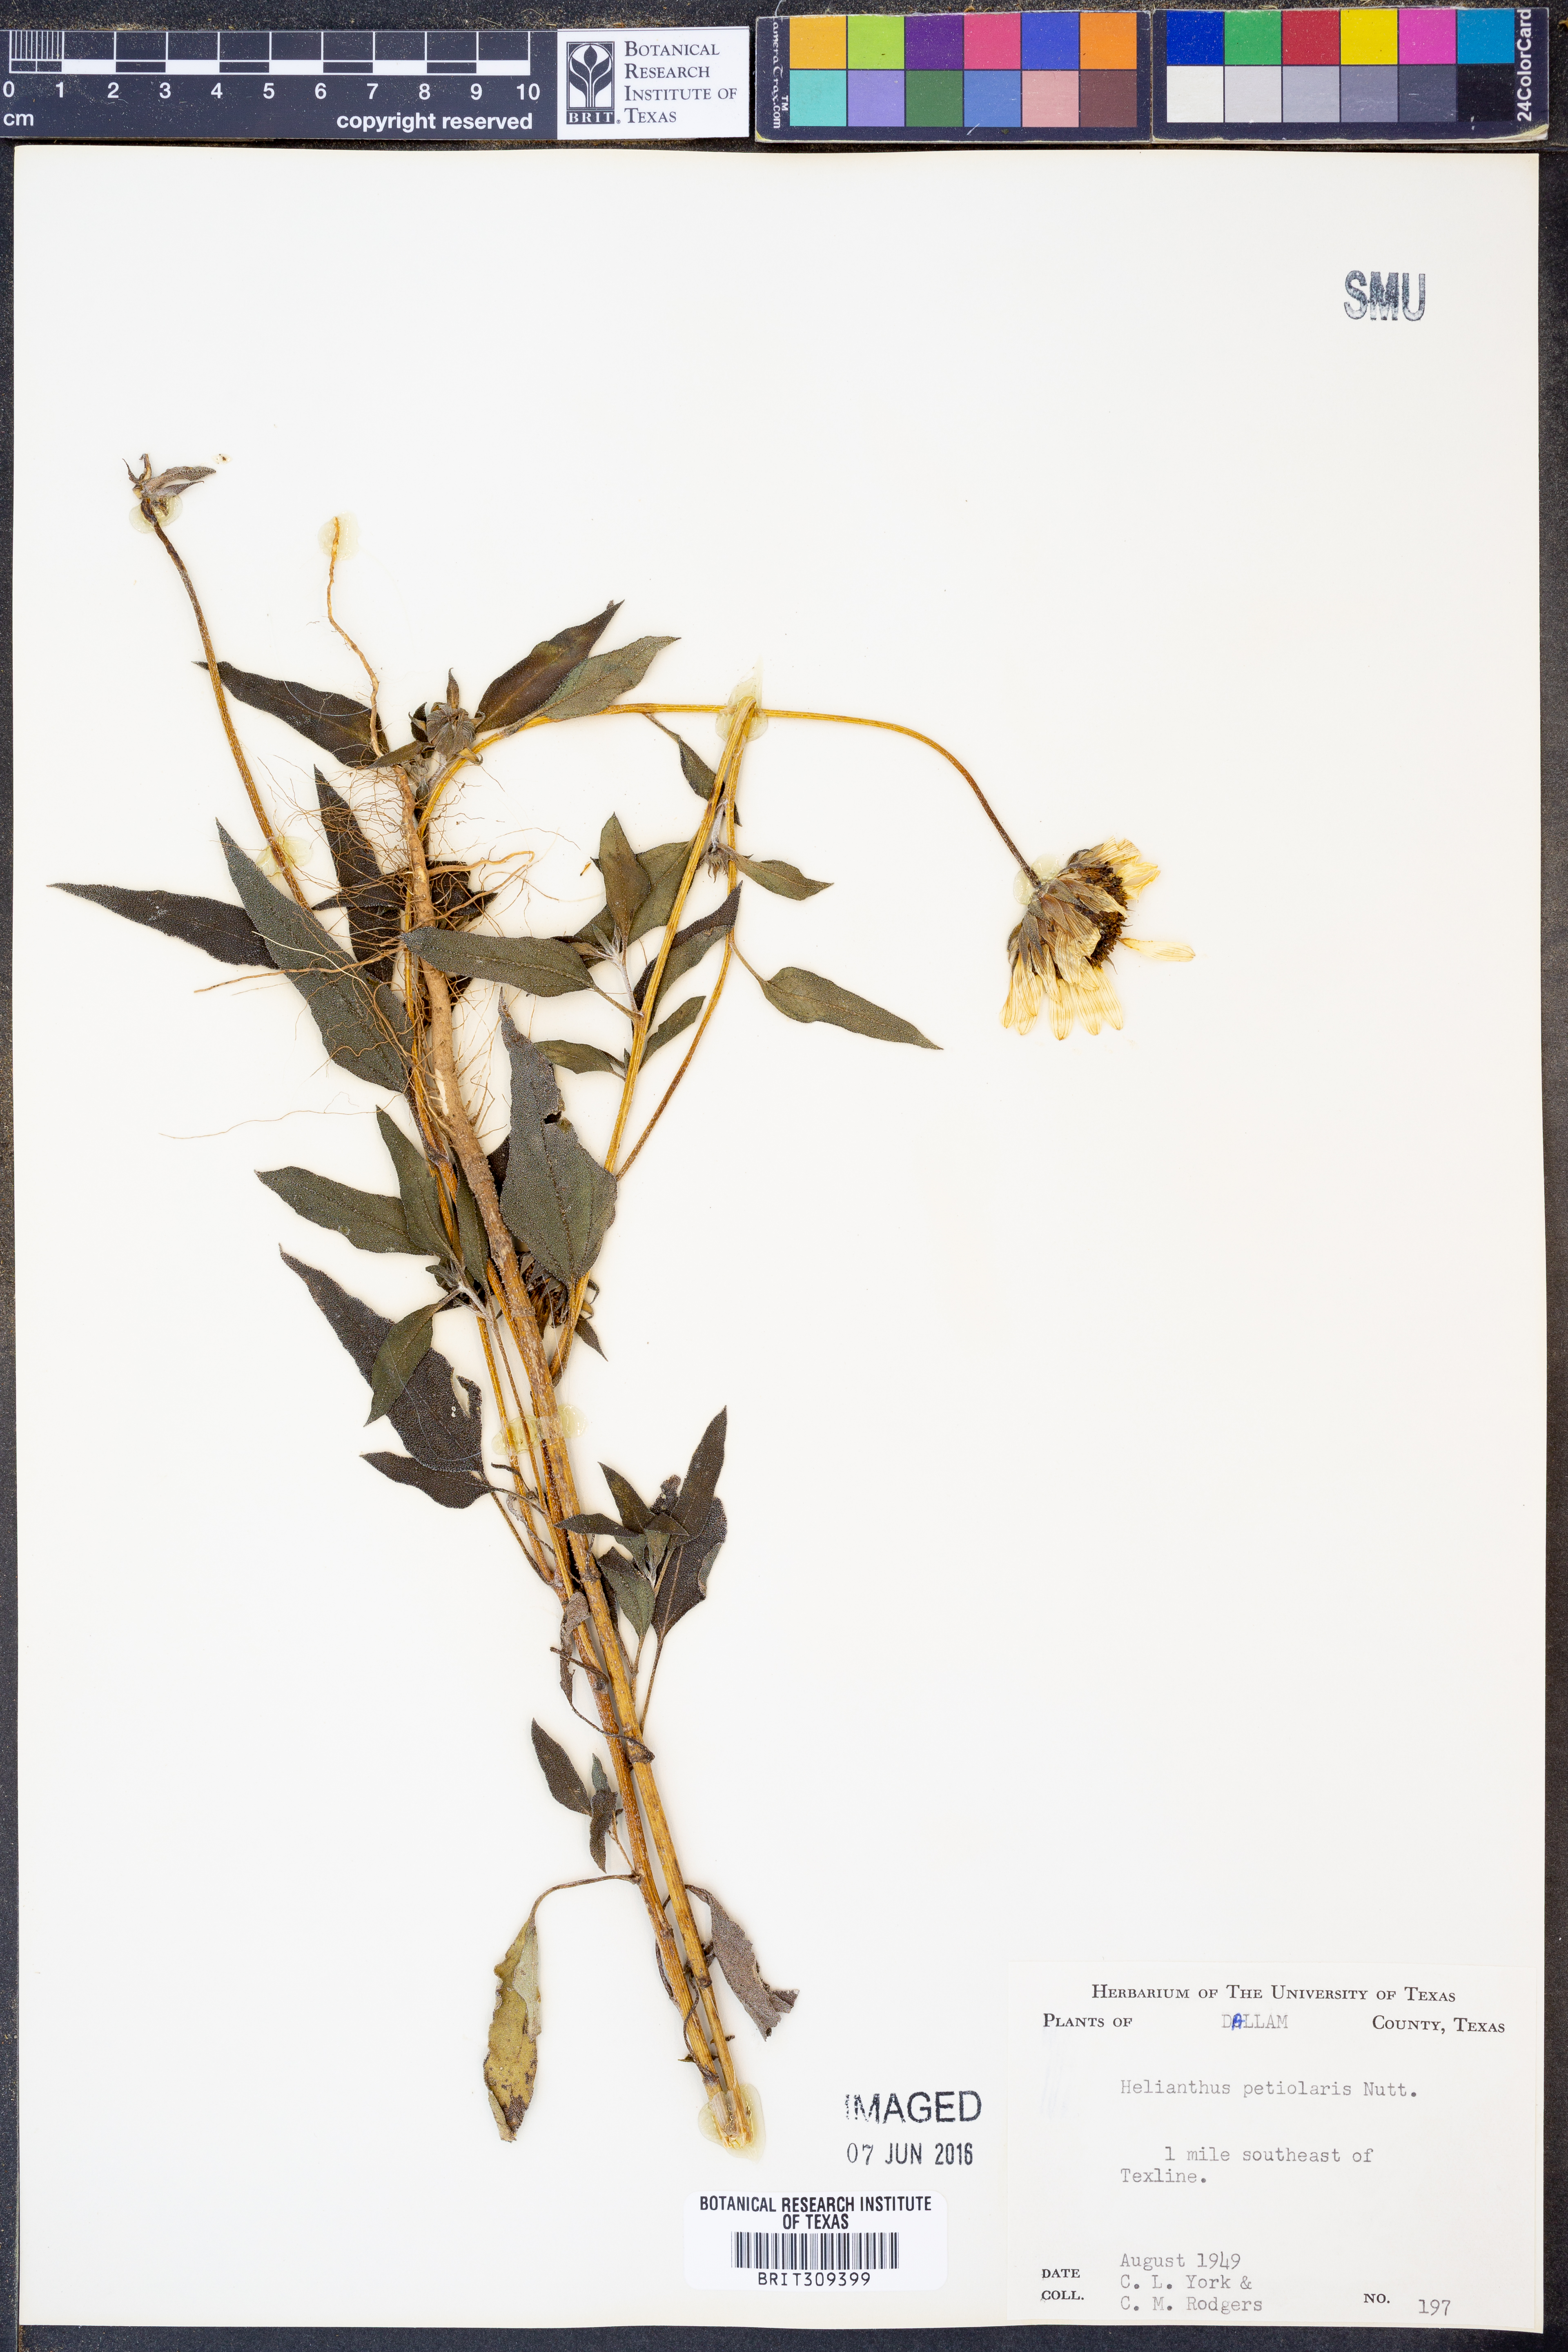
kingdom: Plantae
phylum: Tracheophyta
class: Magnoliopsida
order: Asterales
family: Asteraceae
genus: Helianthus
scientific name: Helianthus petiolaris
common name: Lesser sunflower
